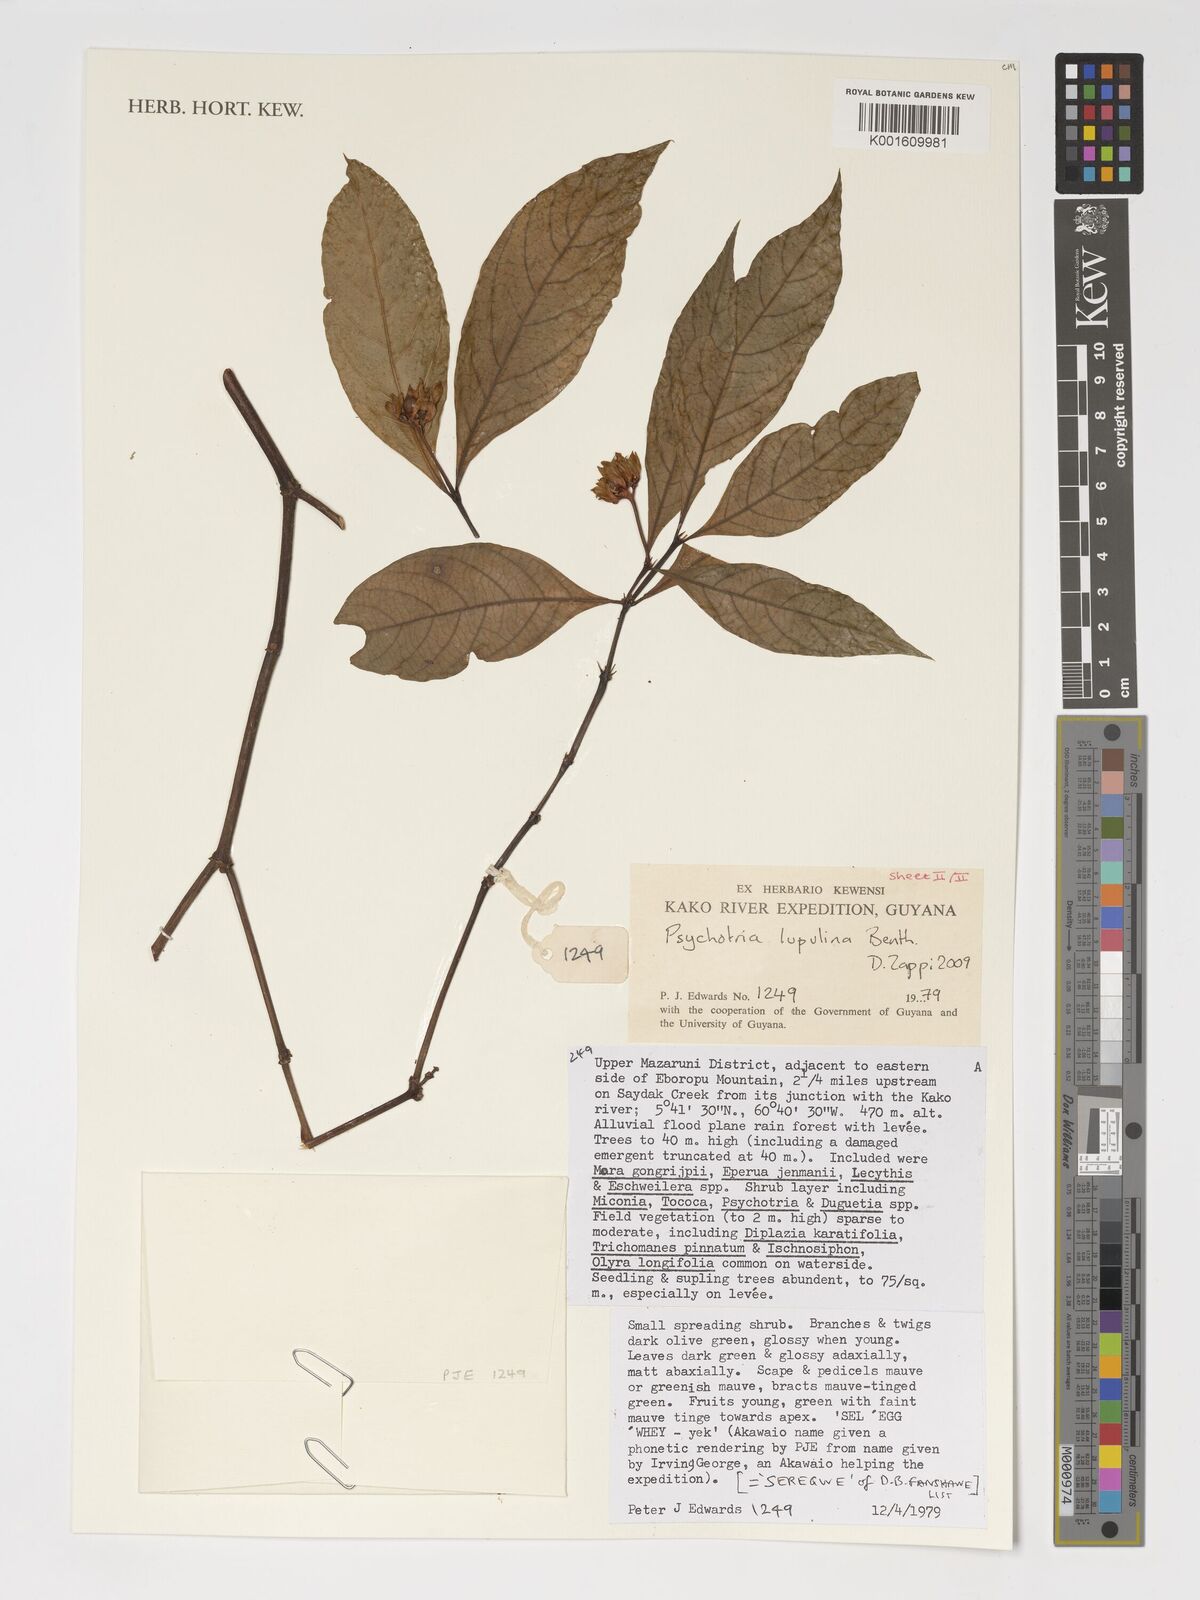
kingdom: Plantae
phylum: Tracheophyta
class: Magnoliopsida
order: Gentianales
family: Rubiaceae
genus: Palicourea
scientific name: Palicourea justiciifolia
